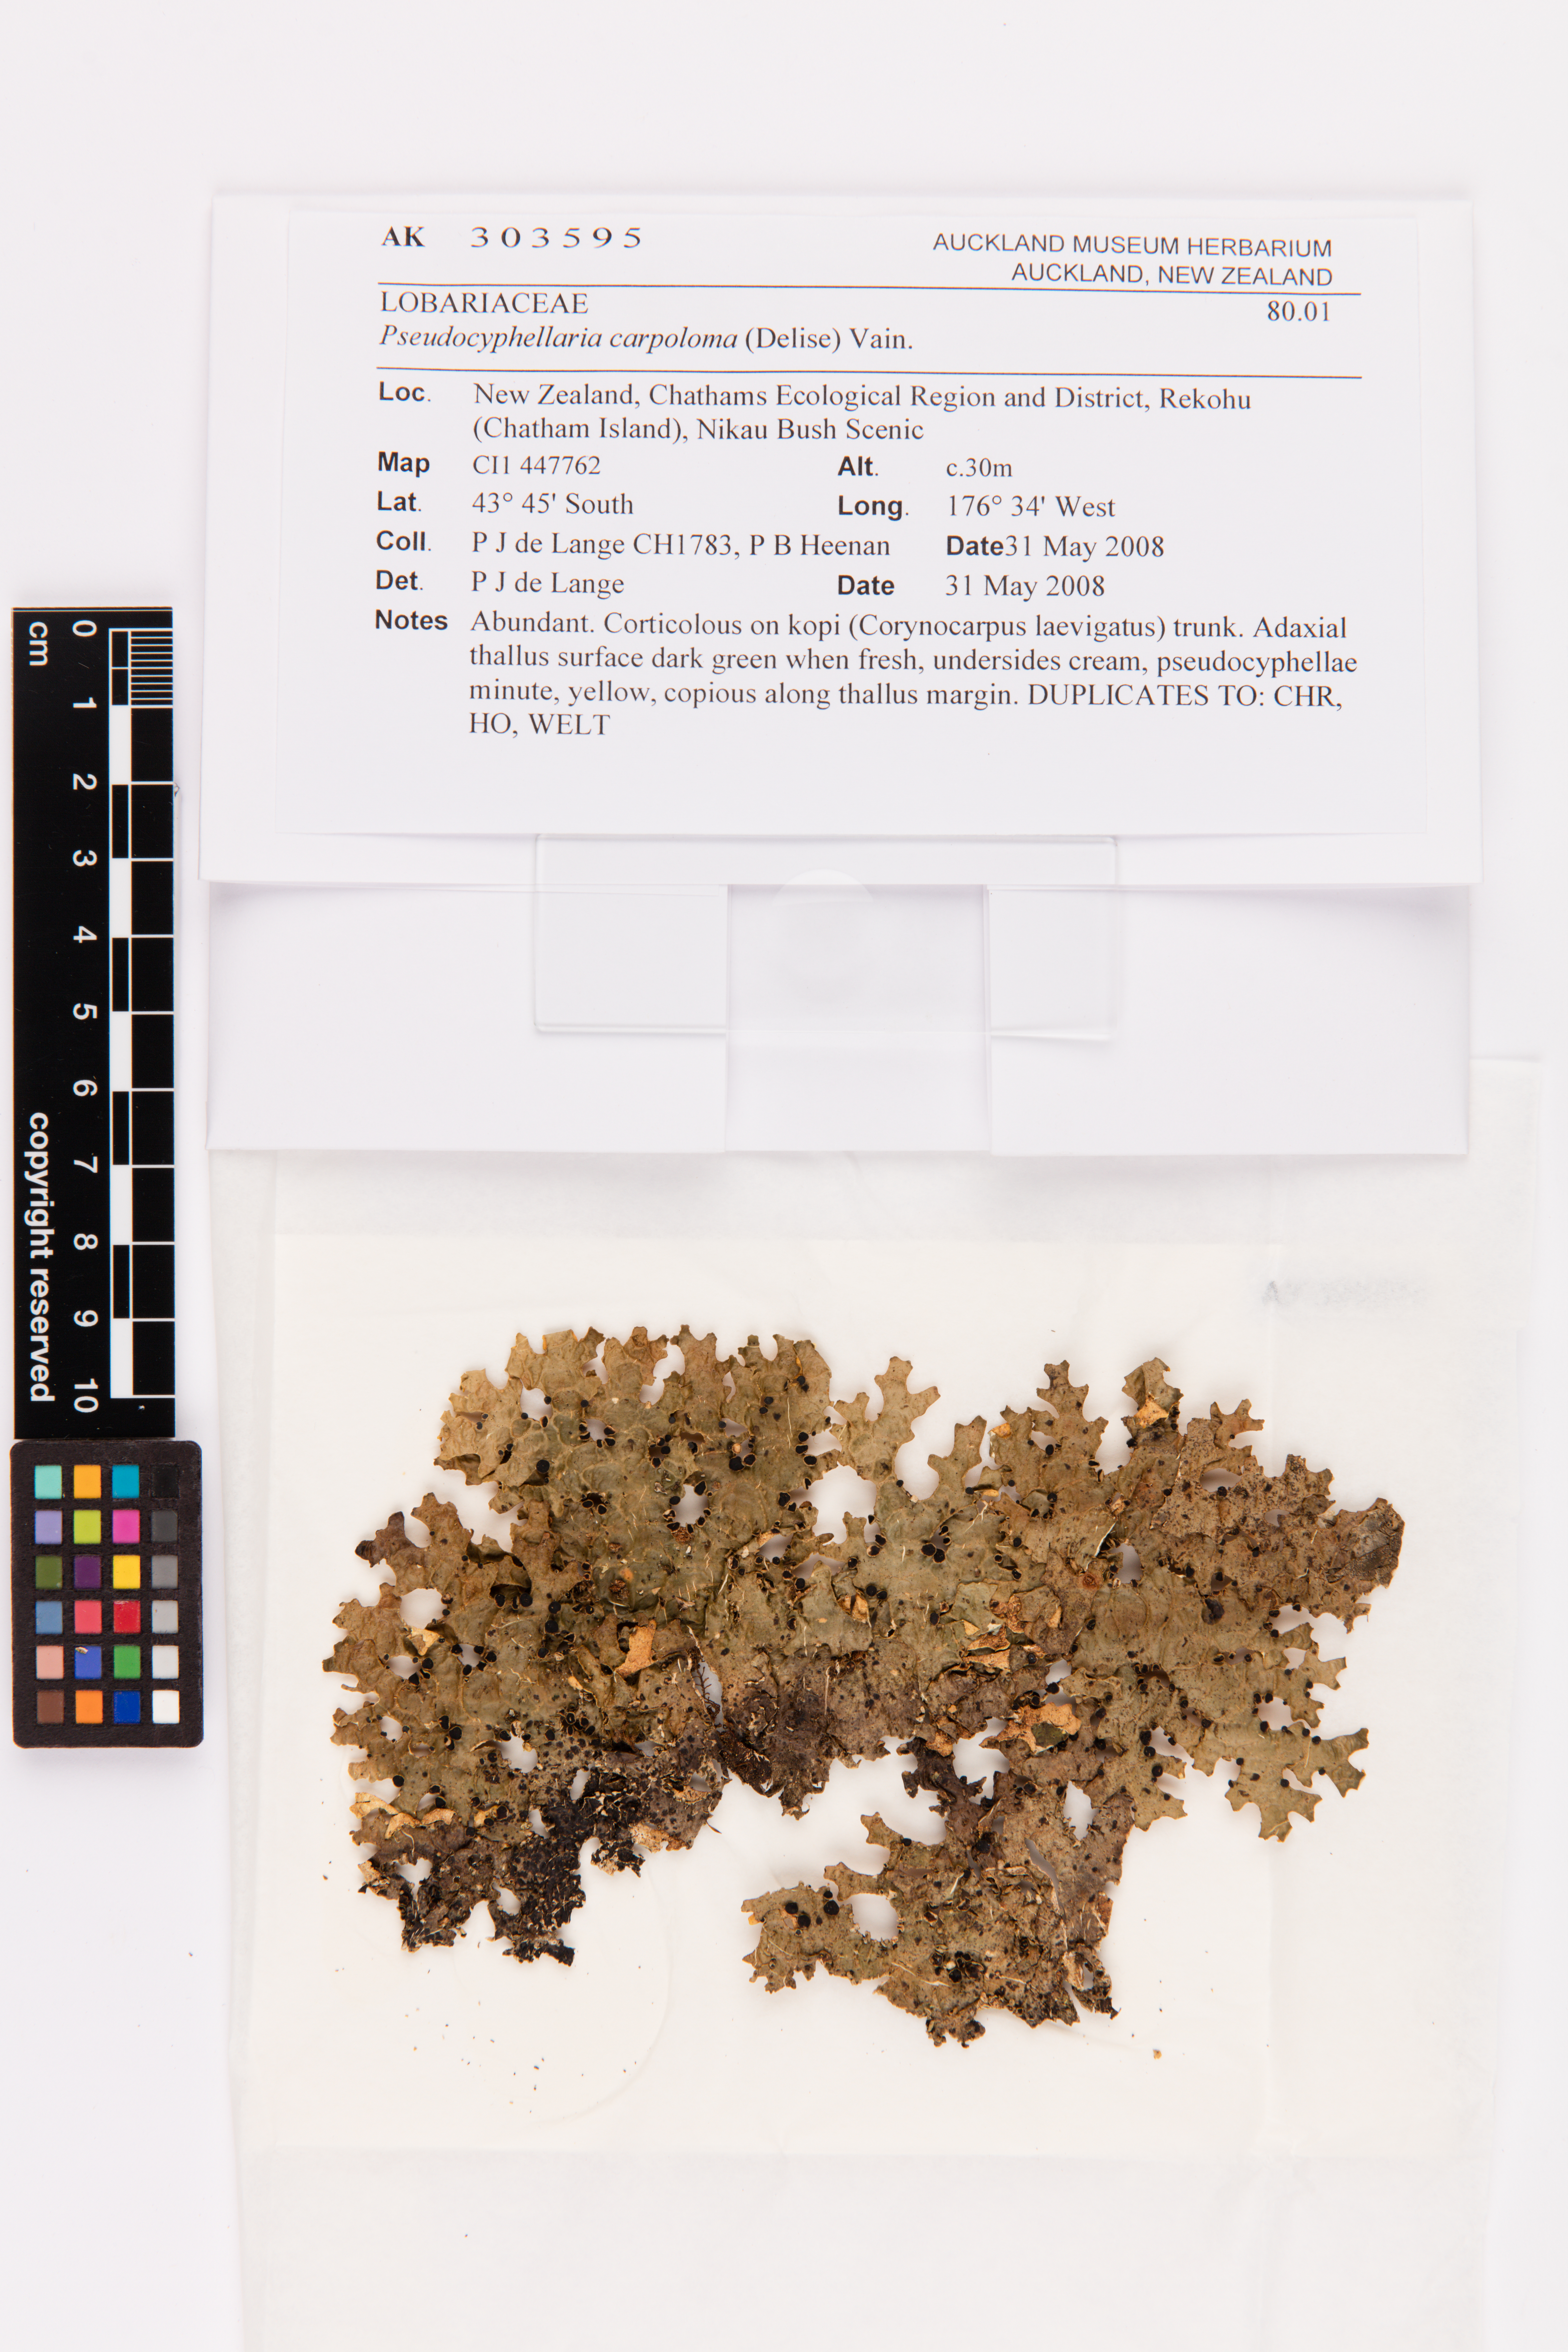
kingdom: Fungi
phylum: Ascomycota
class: Lecanoromycetes
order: Peltigerales
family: Lobariaceae
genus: Pseudocyphellaria
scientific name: Pseudocyphellaria carpoloma
